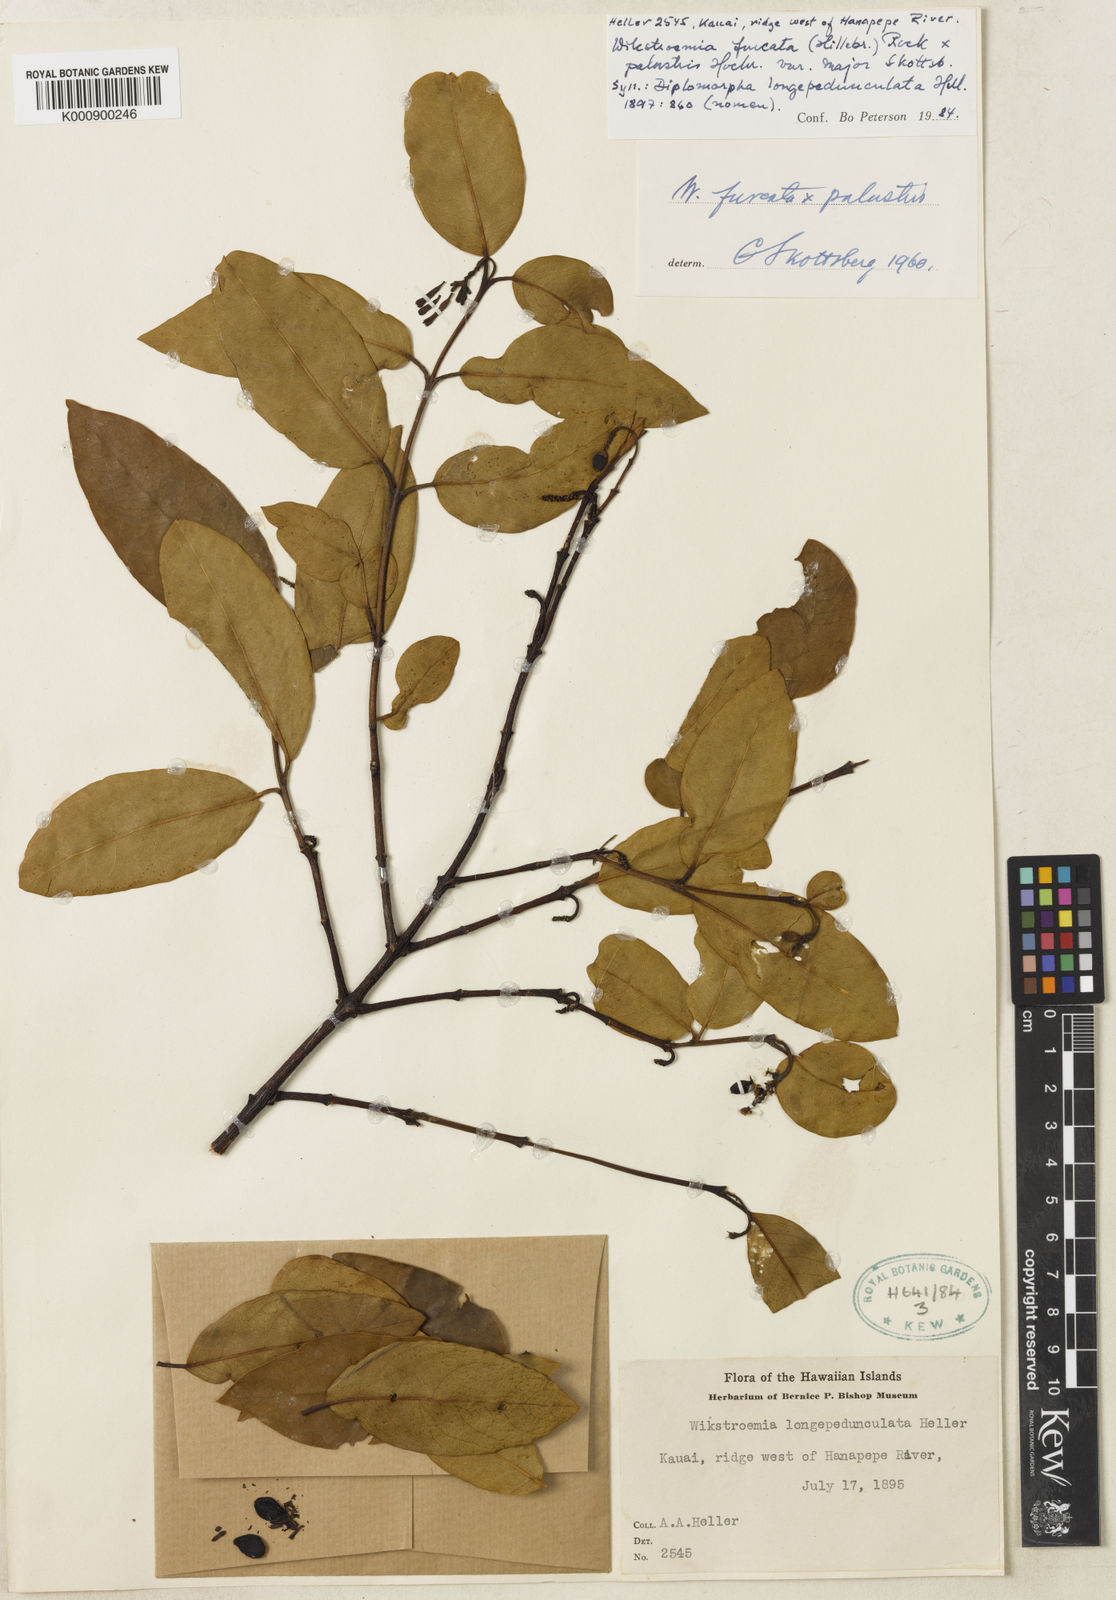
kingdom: Plantae
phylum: Tracheophyta
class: Magnoliopsida
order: Malvales
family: Thymelaeaceae
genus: Wikstroemia
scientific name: Wikstroemia furcata
